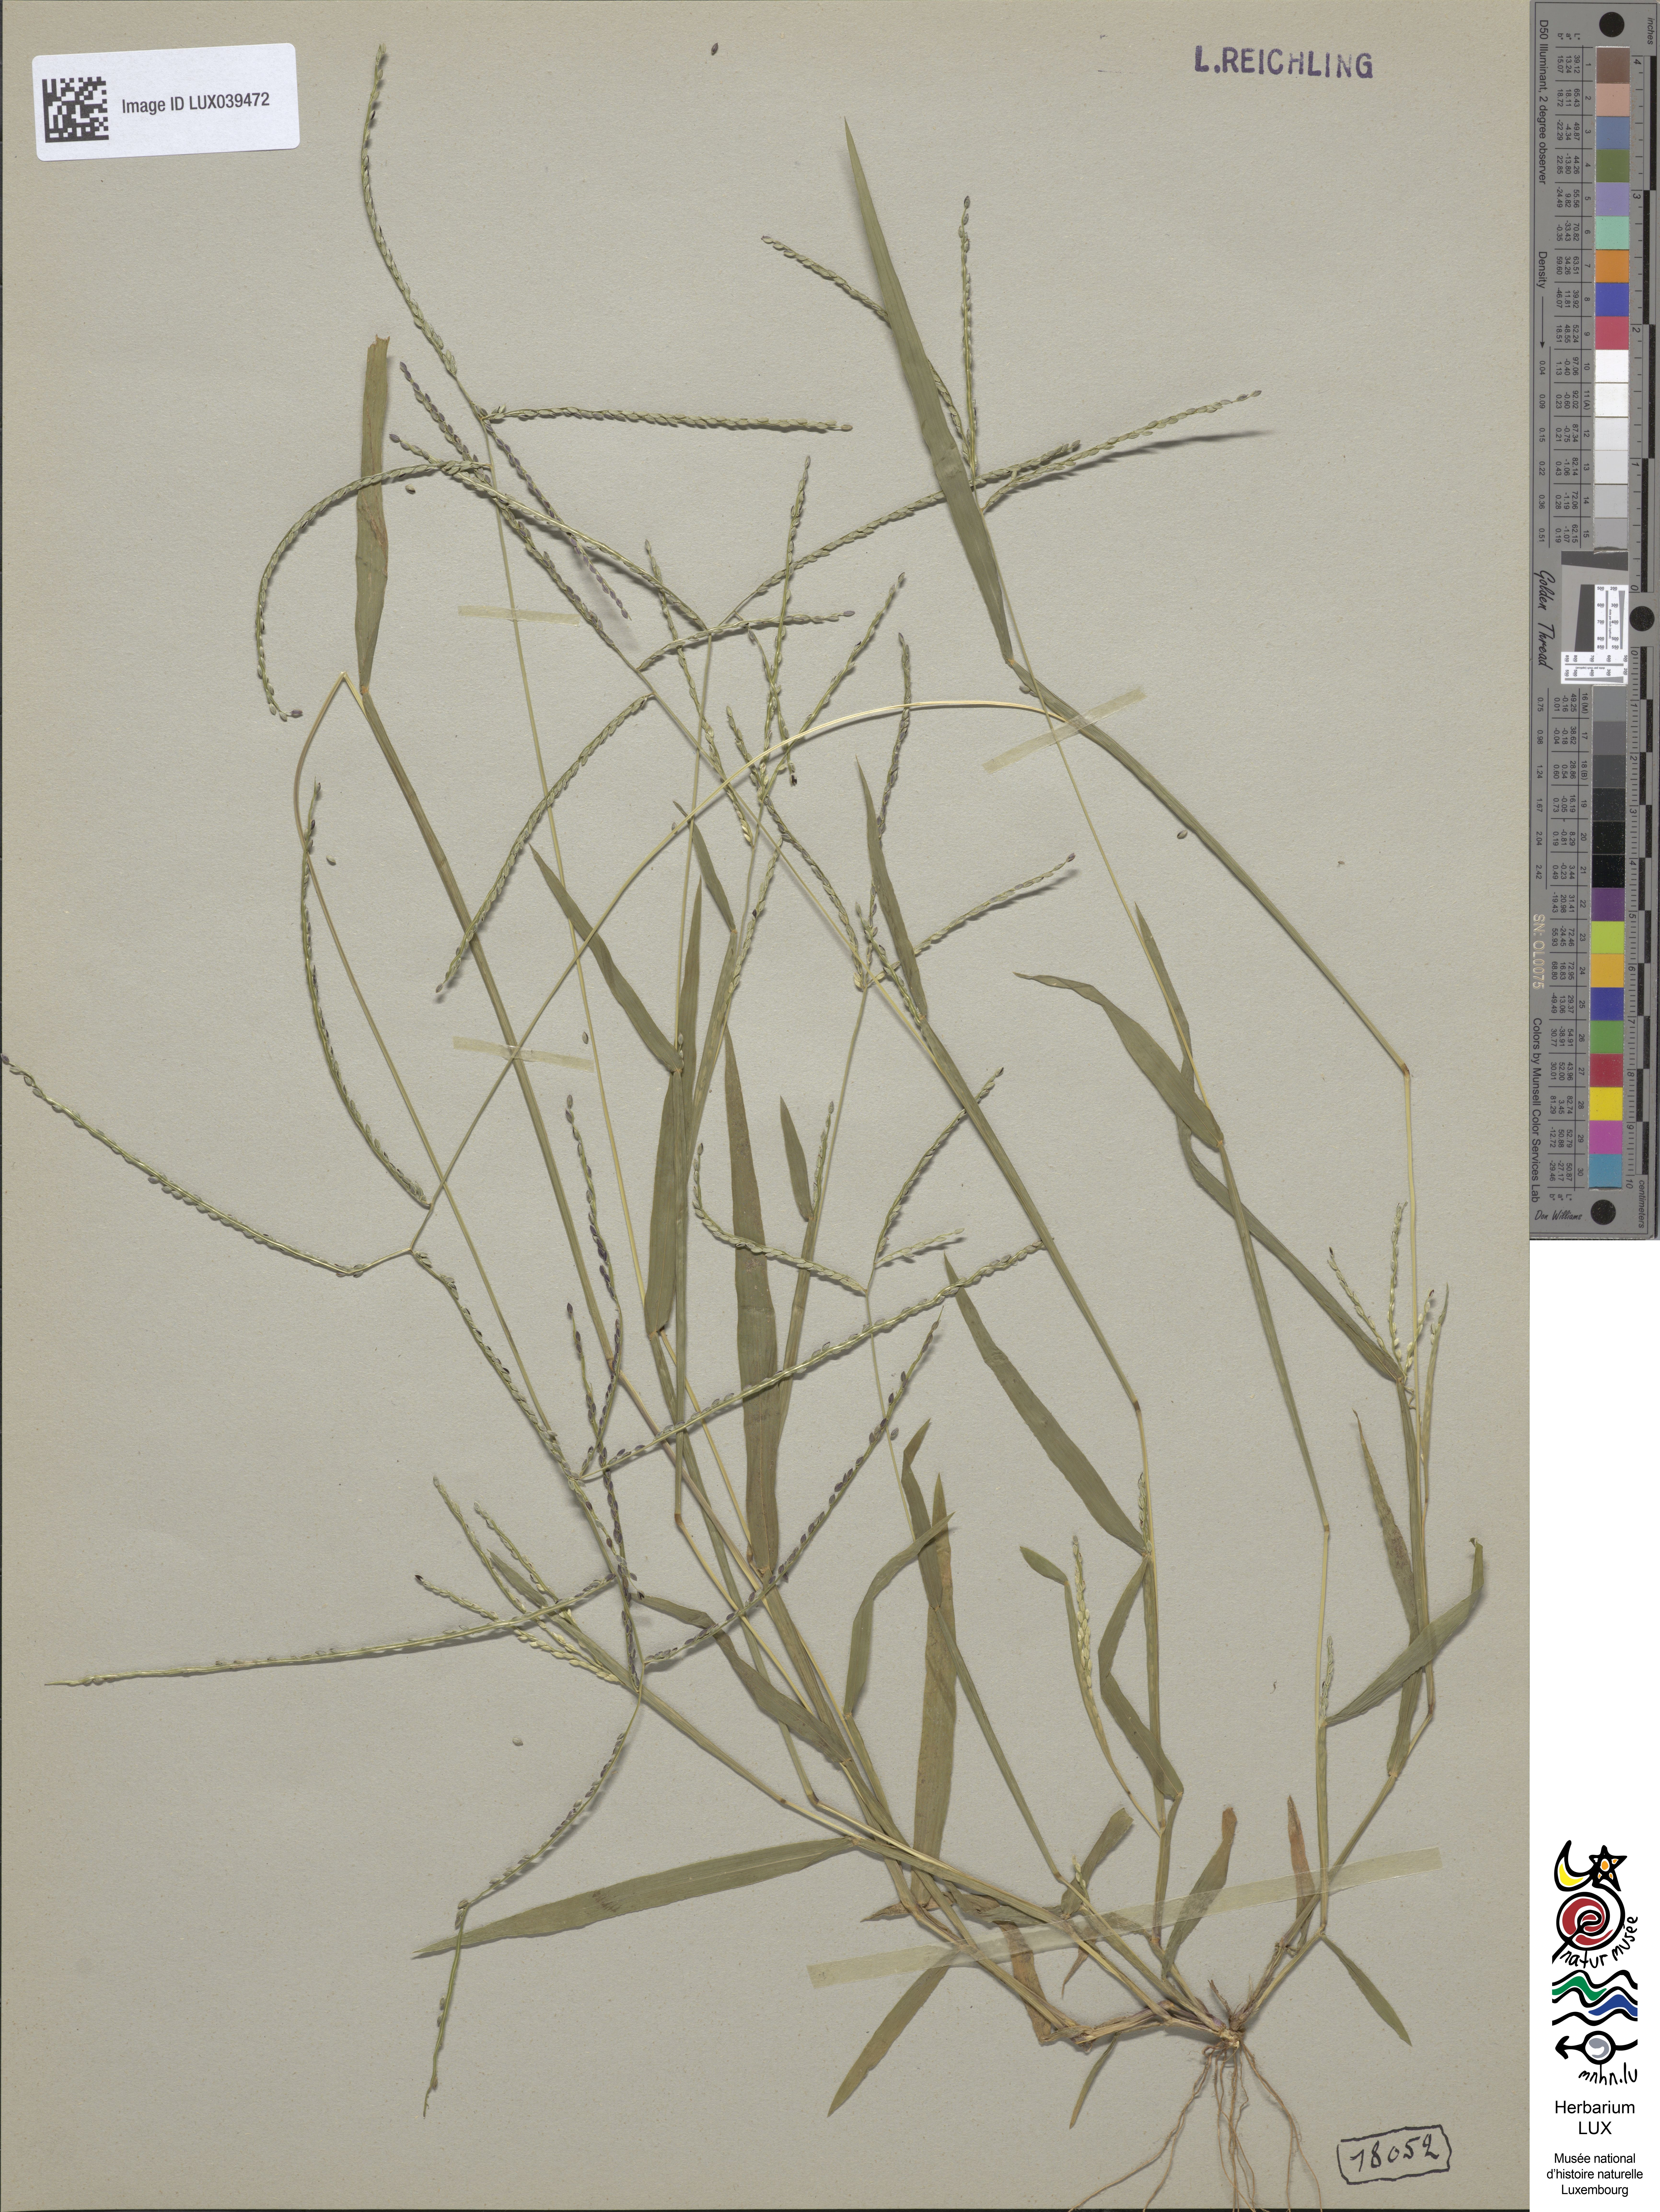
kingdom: Plantae
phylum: Tracheophyta
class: Liliopsida
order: Poales
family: Poaceae
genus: Digitaria
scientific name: Digitaria ischaemum
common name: Smooth crabgrass
